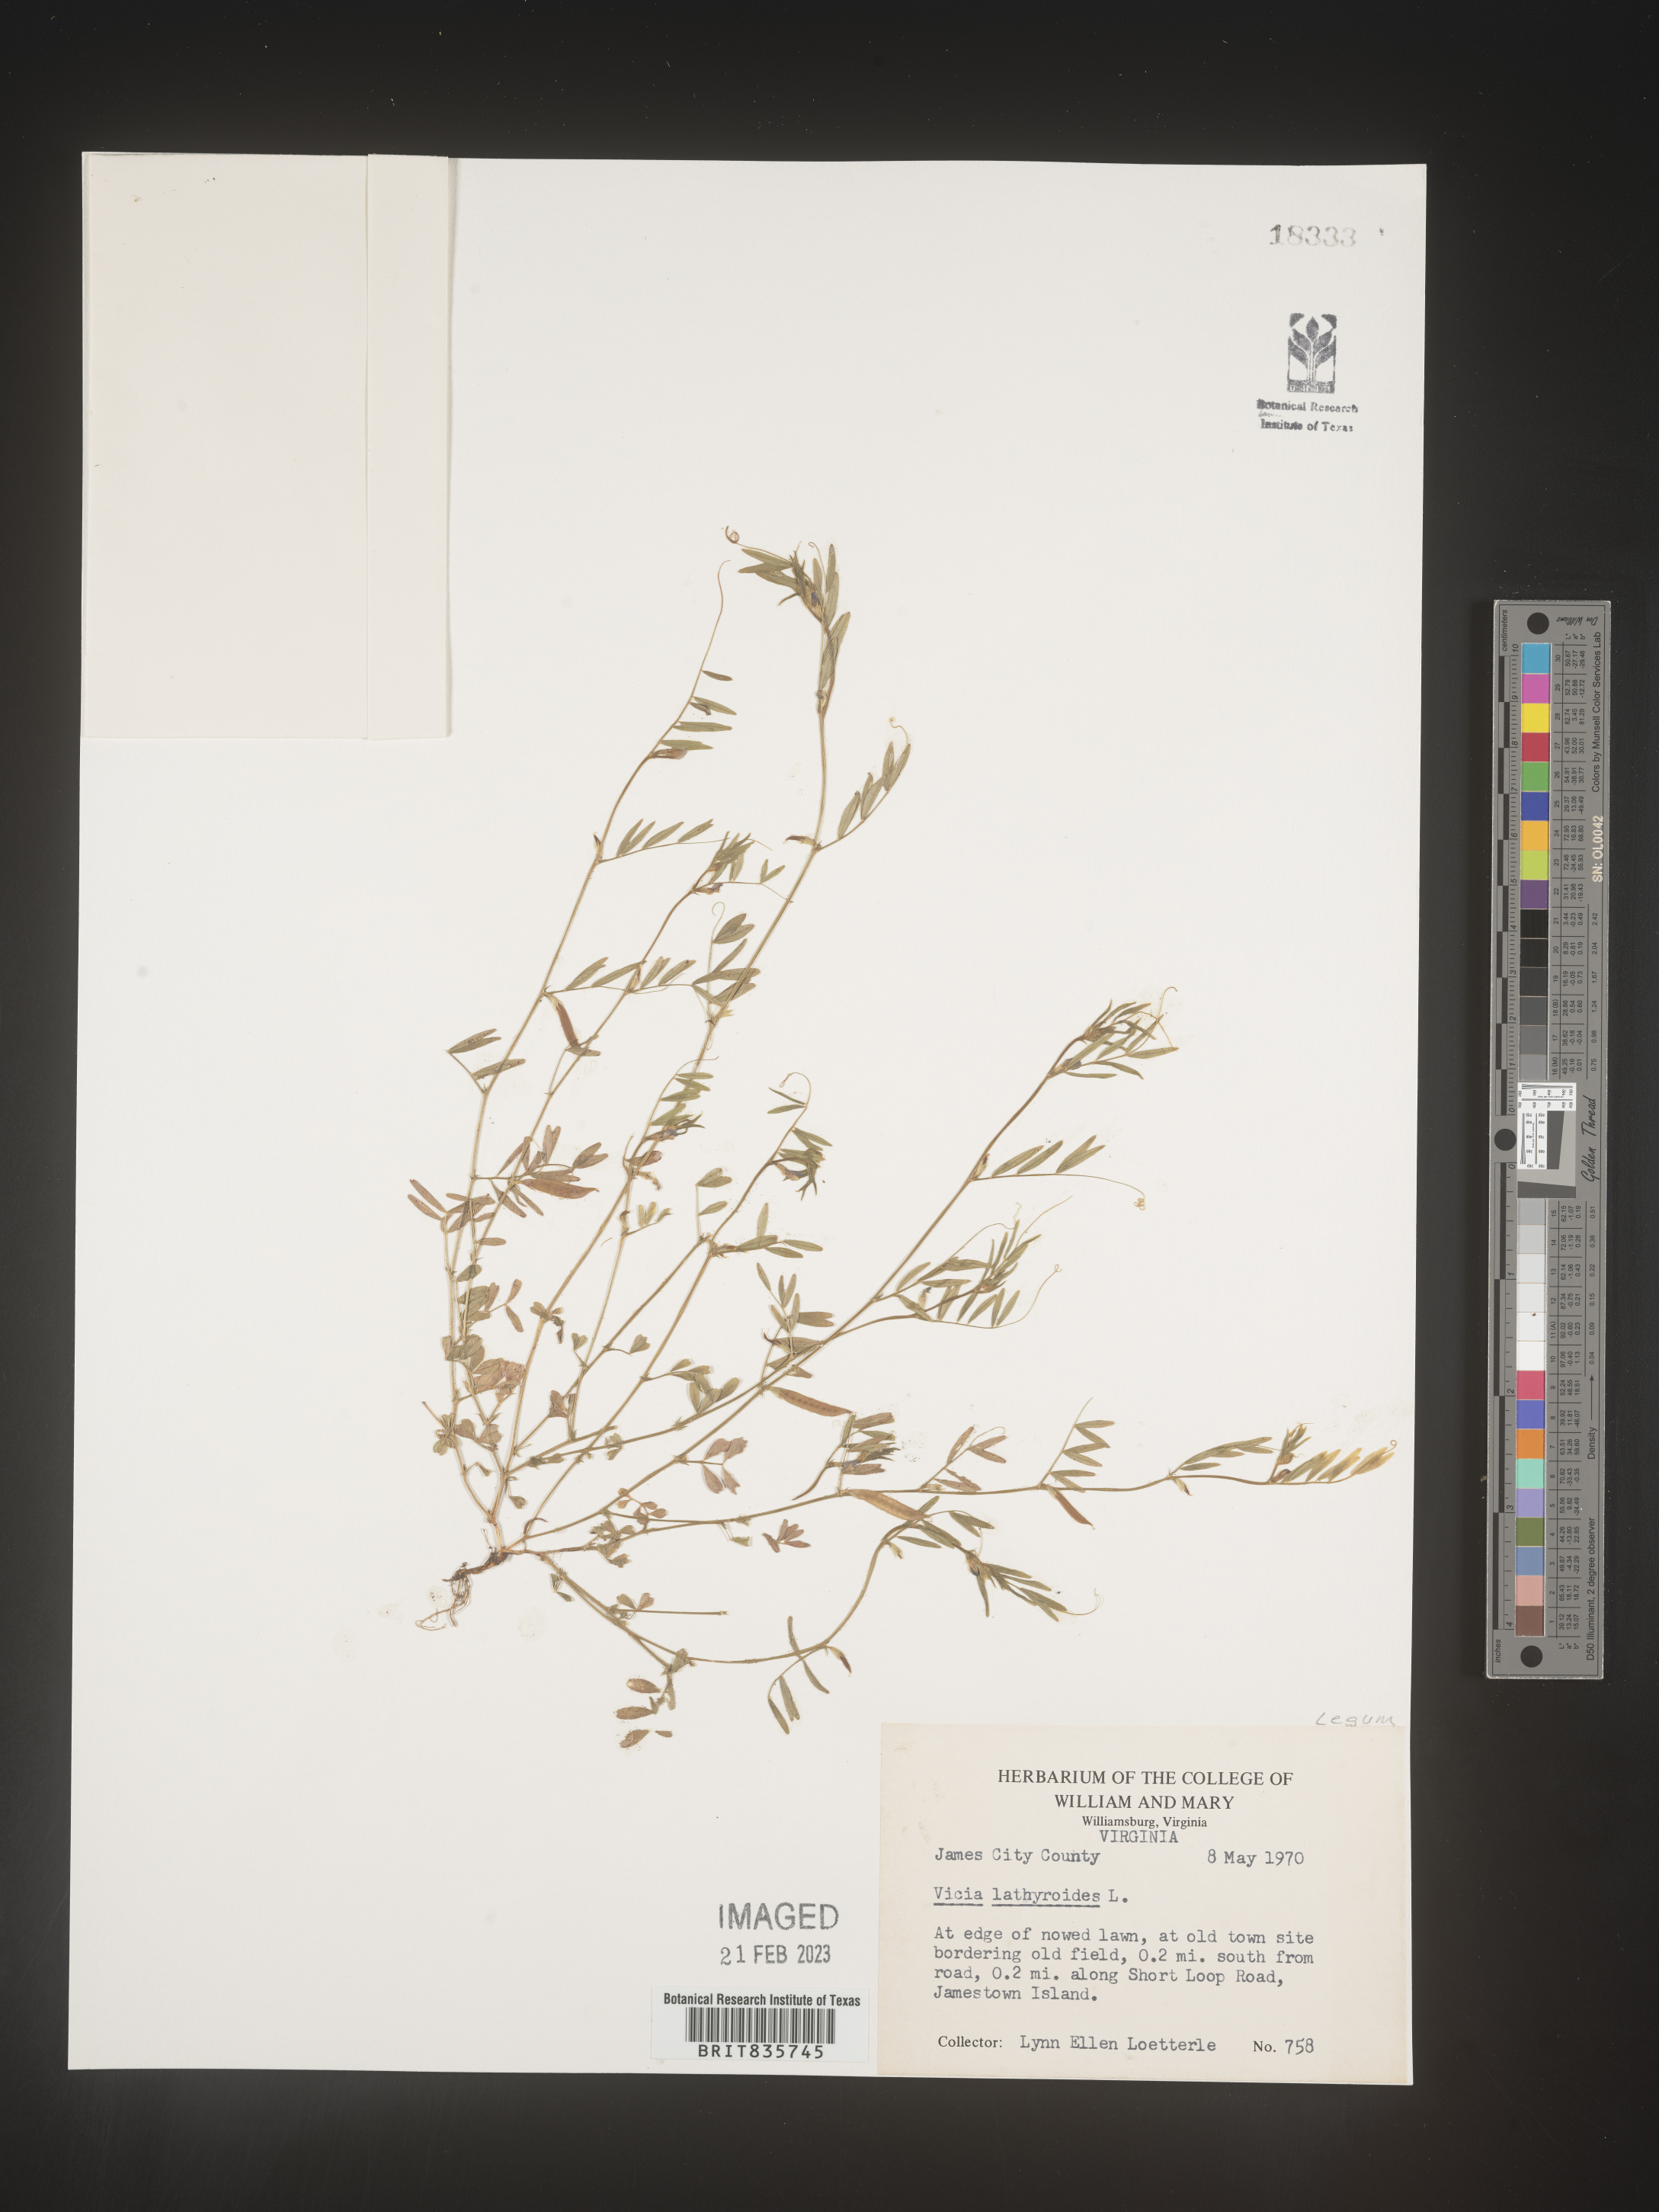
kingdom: Plantae
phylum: Tracheophyta
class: Magnoliopsida
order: Fabales
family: Fabaceae
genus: Vicia
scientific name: Vicia
